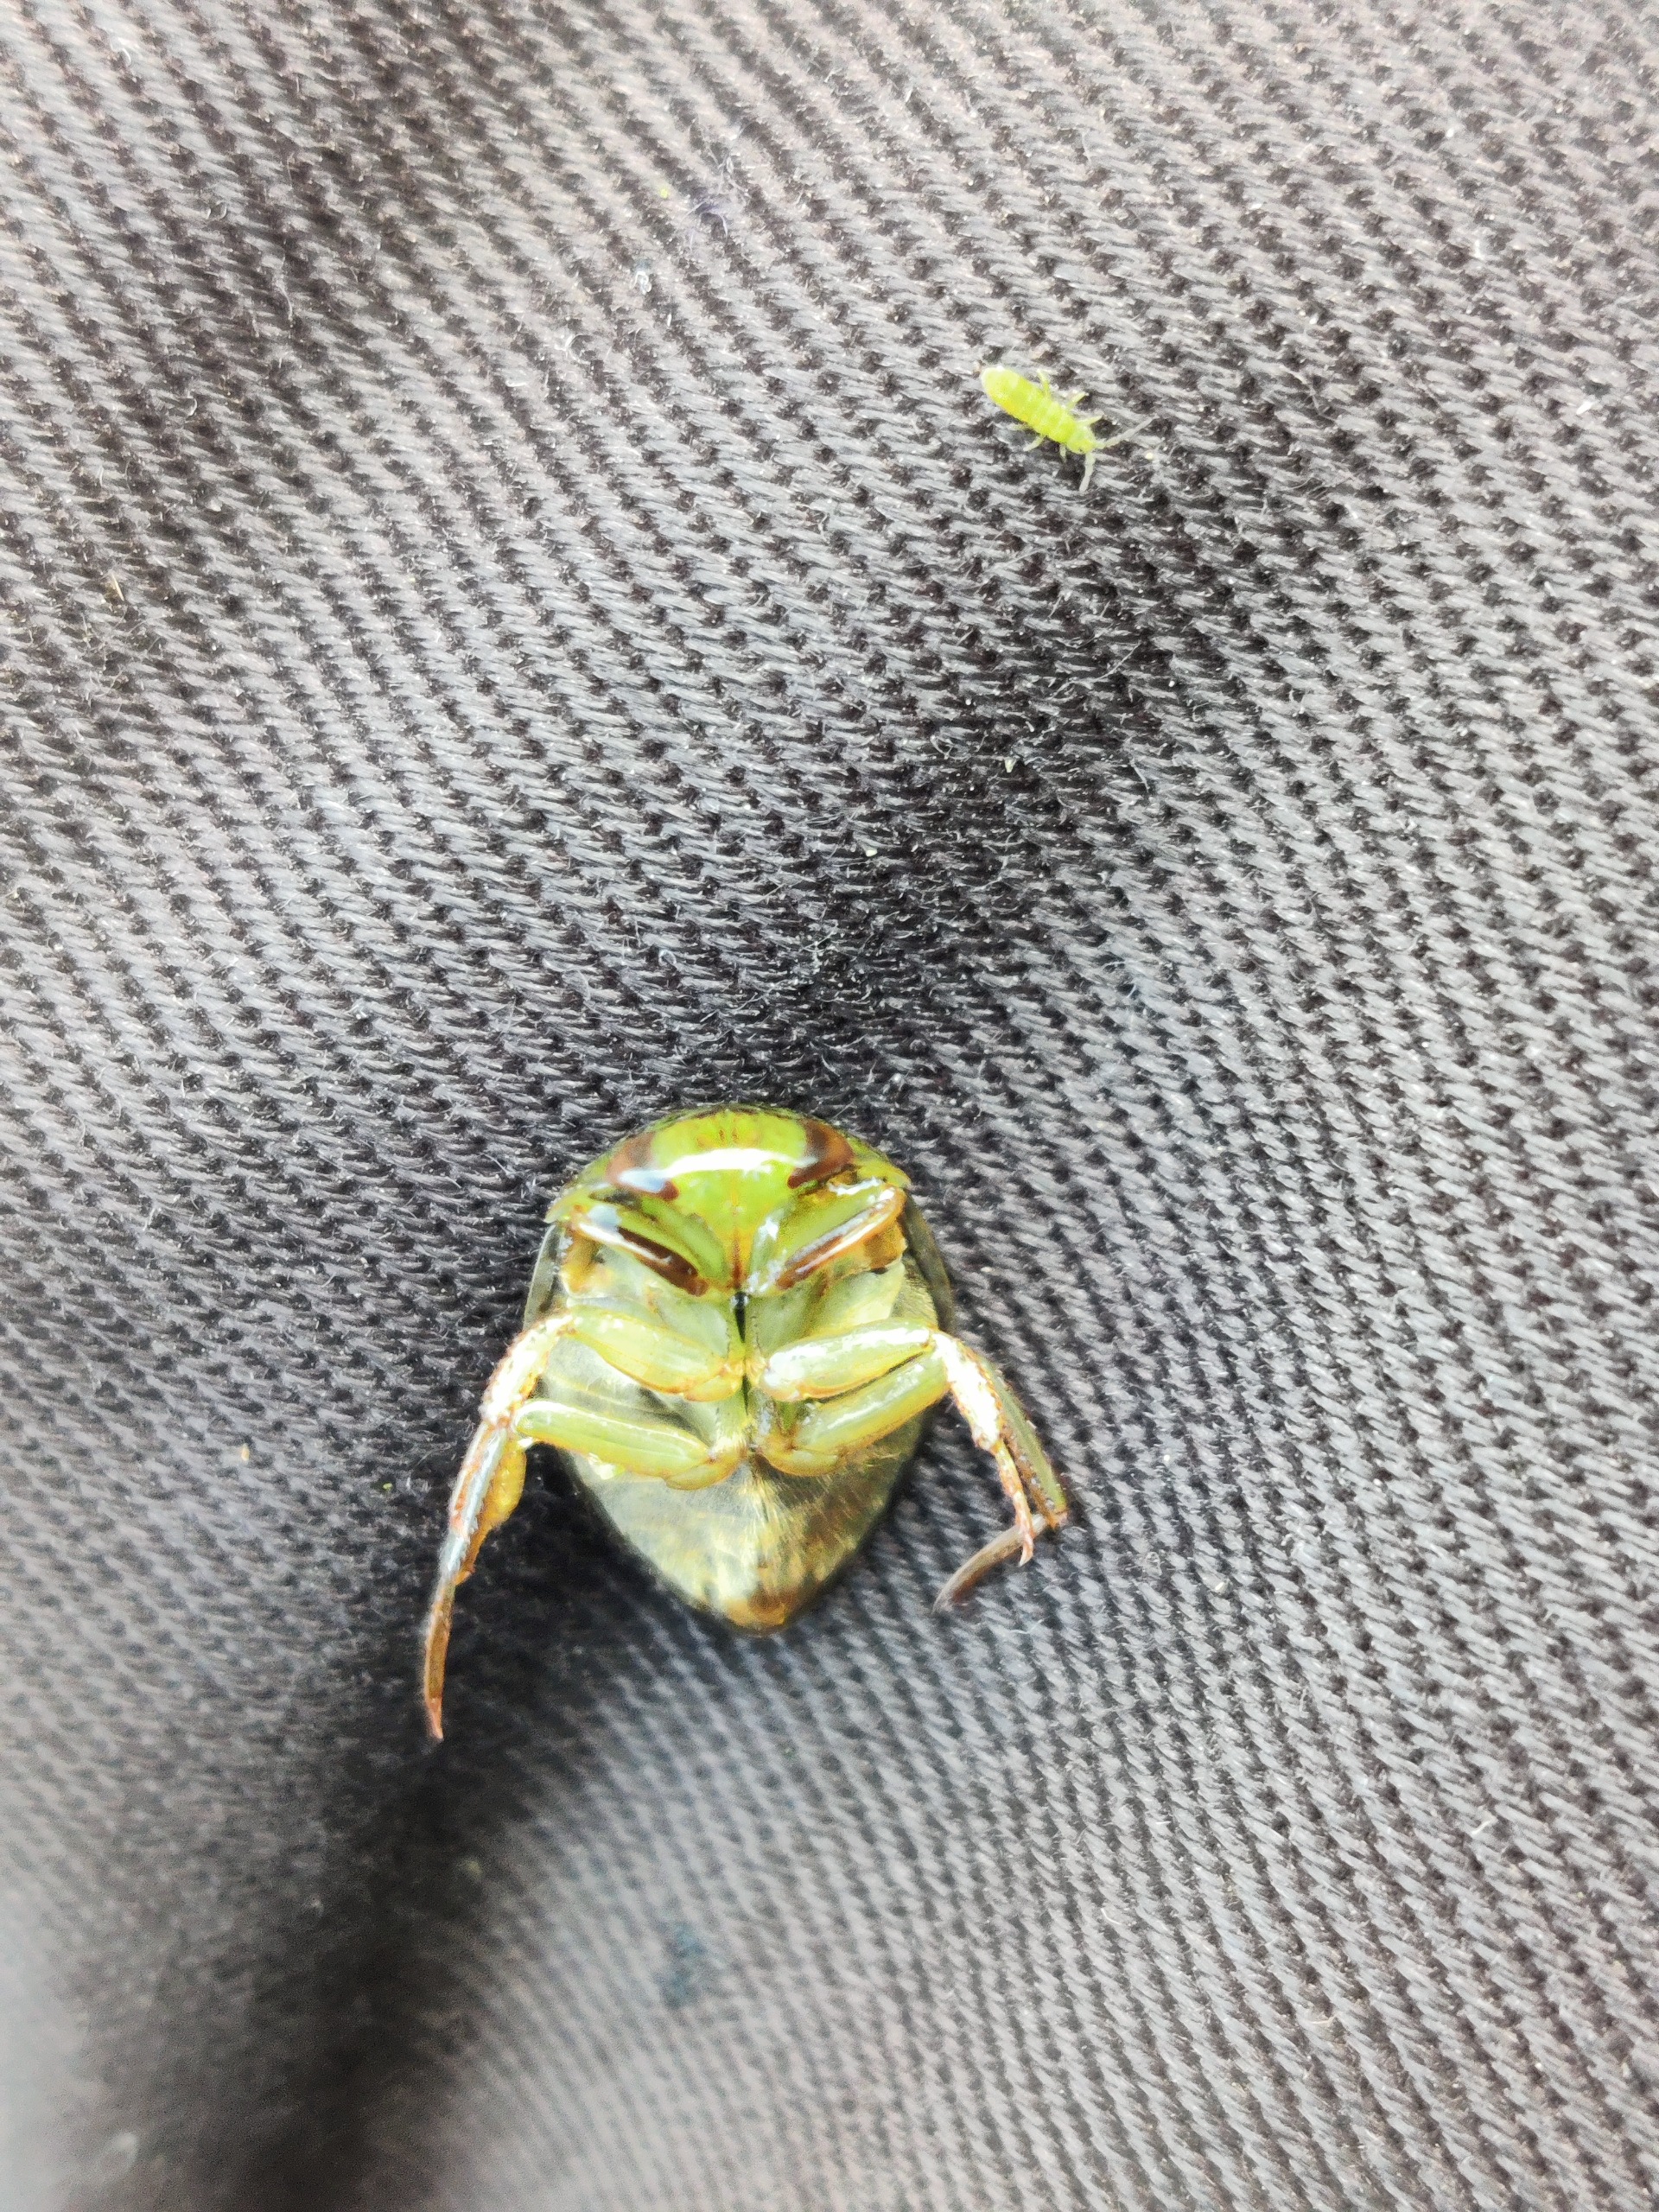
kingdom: Animalia
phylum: Arthropoda
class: Insecta
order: Hemiptera
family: Naucoridae
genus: Ilyocoris
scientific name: Ilyocoris cimicoides
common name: Vandrøver
